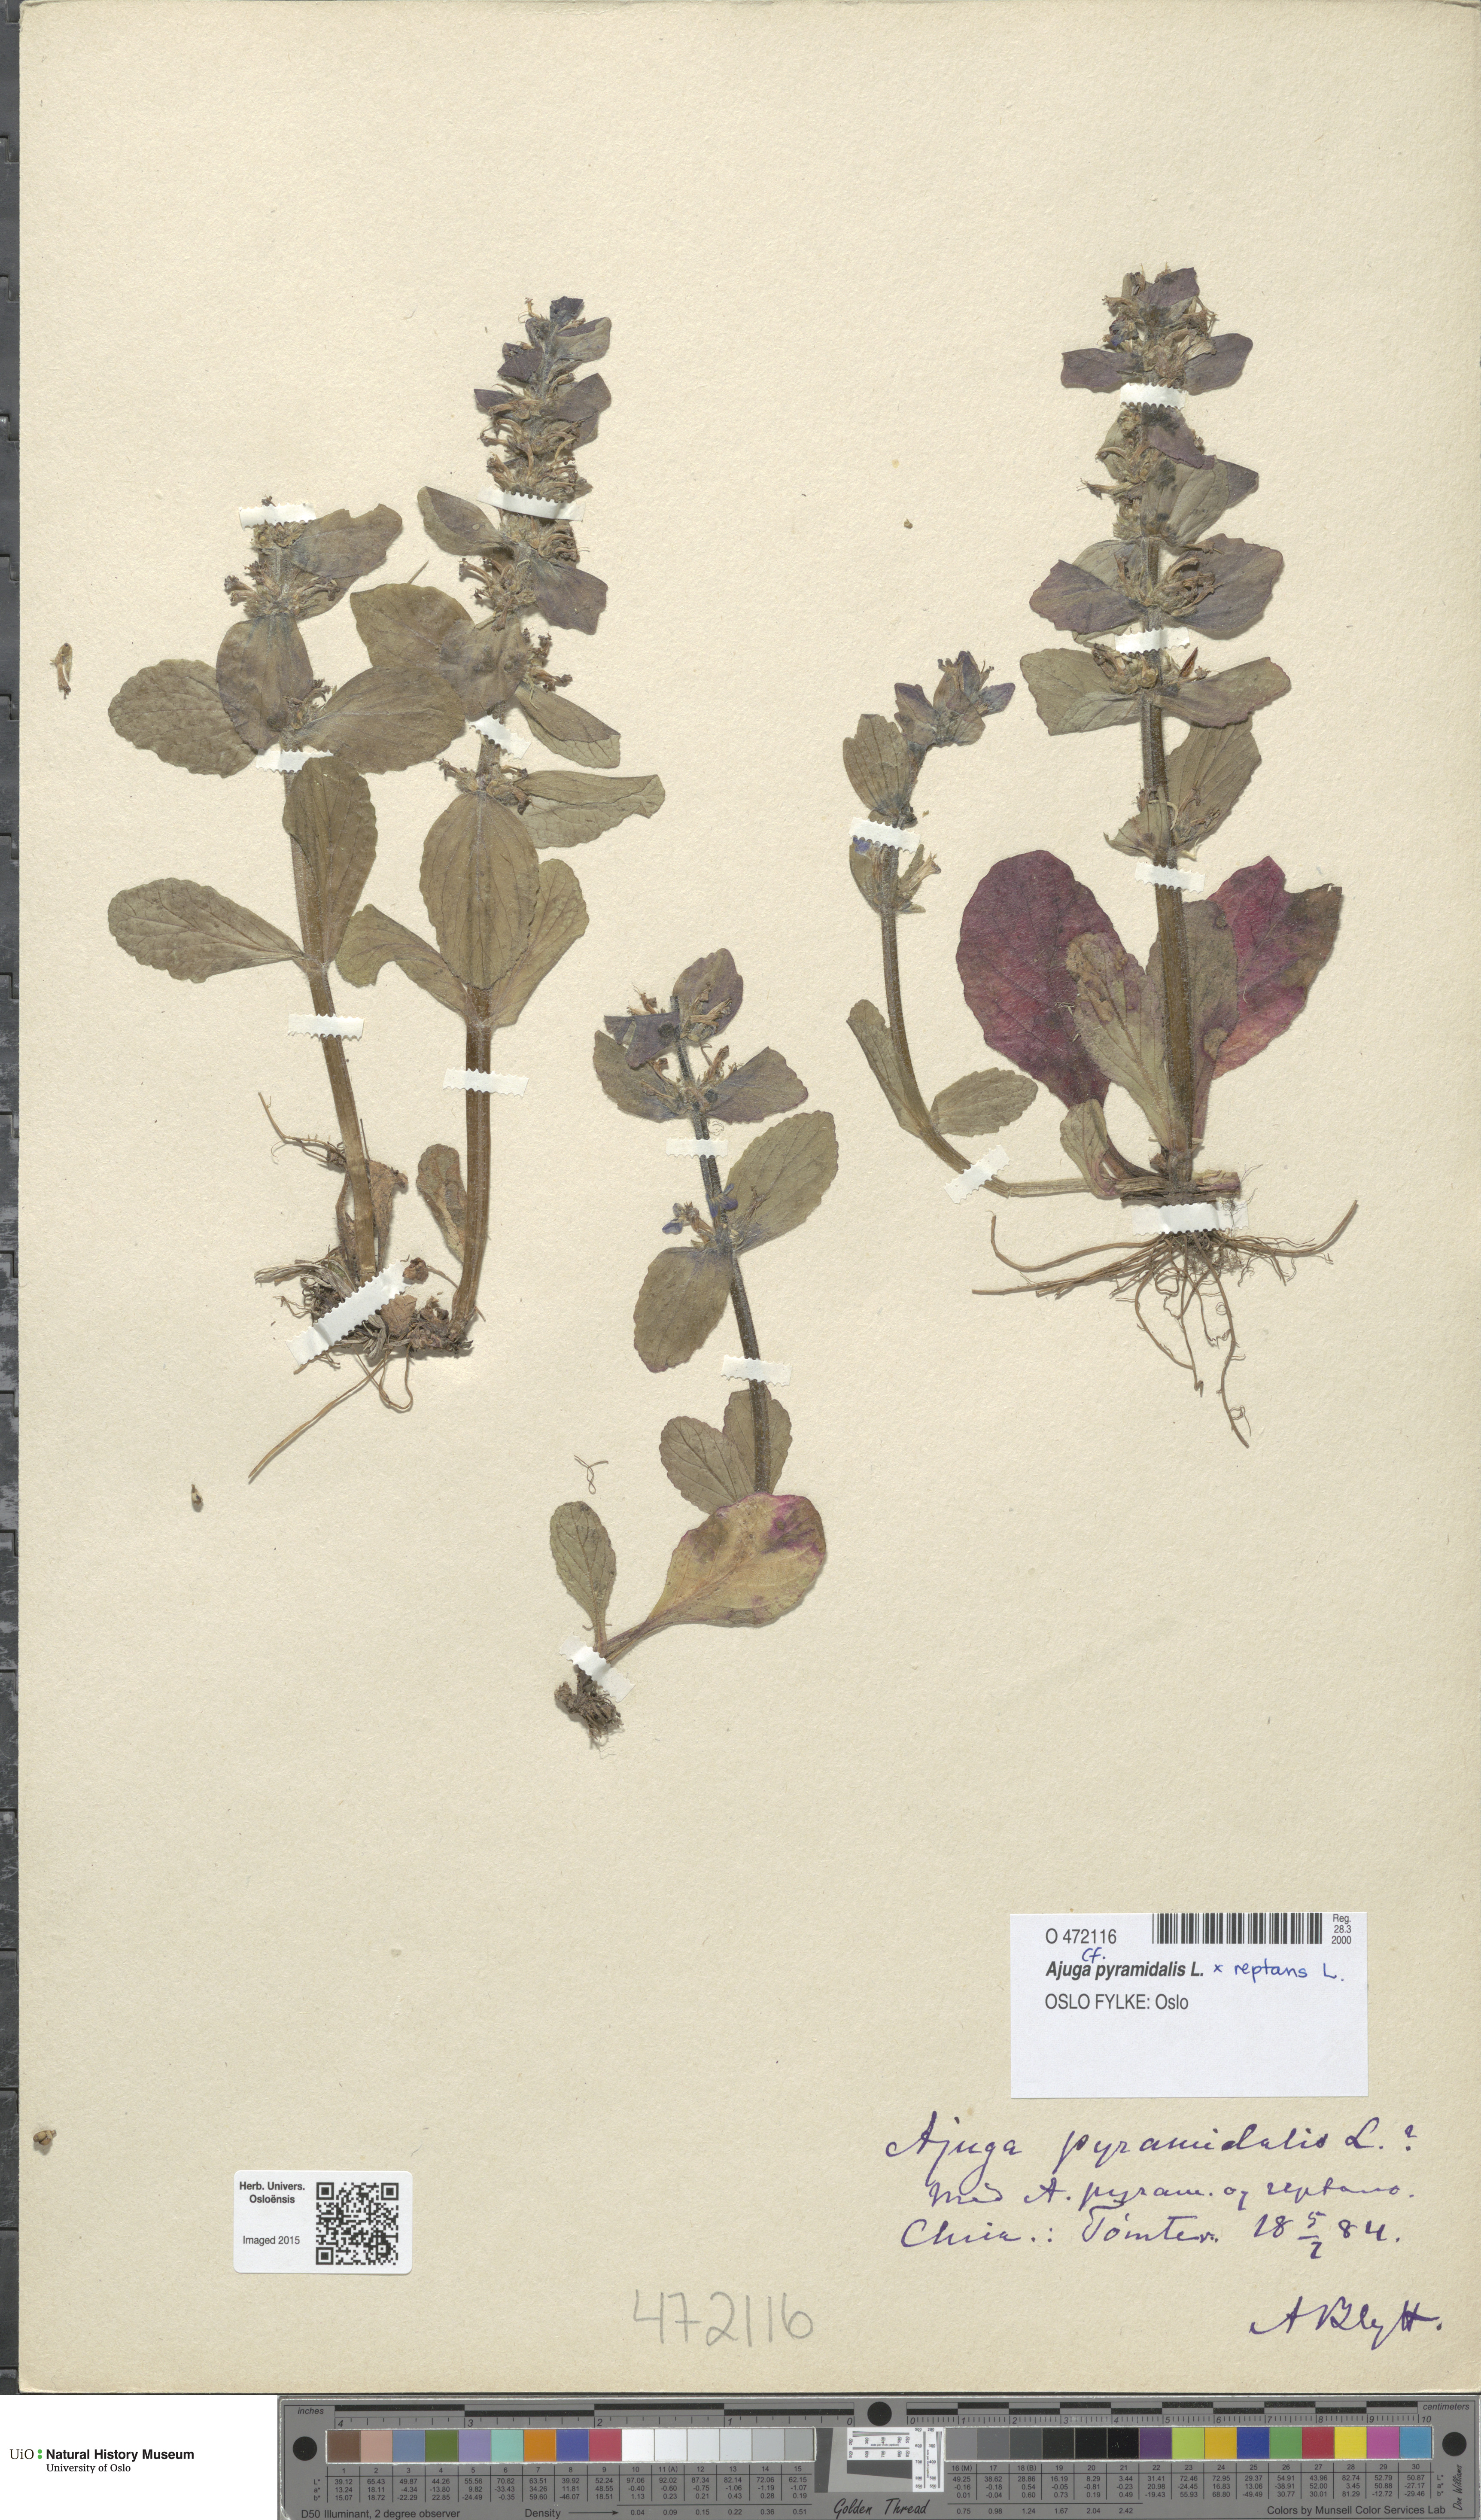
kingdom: Plantae
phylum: Tracheophyta
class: Magnoliopsida
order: Lamiales
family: Lamiaceae
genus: Ajuga
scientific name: Ajuga
